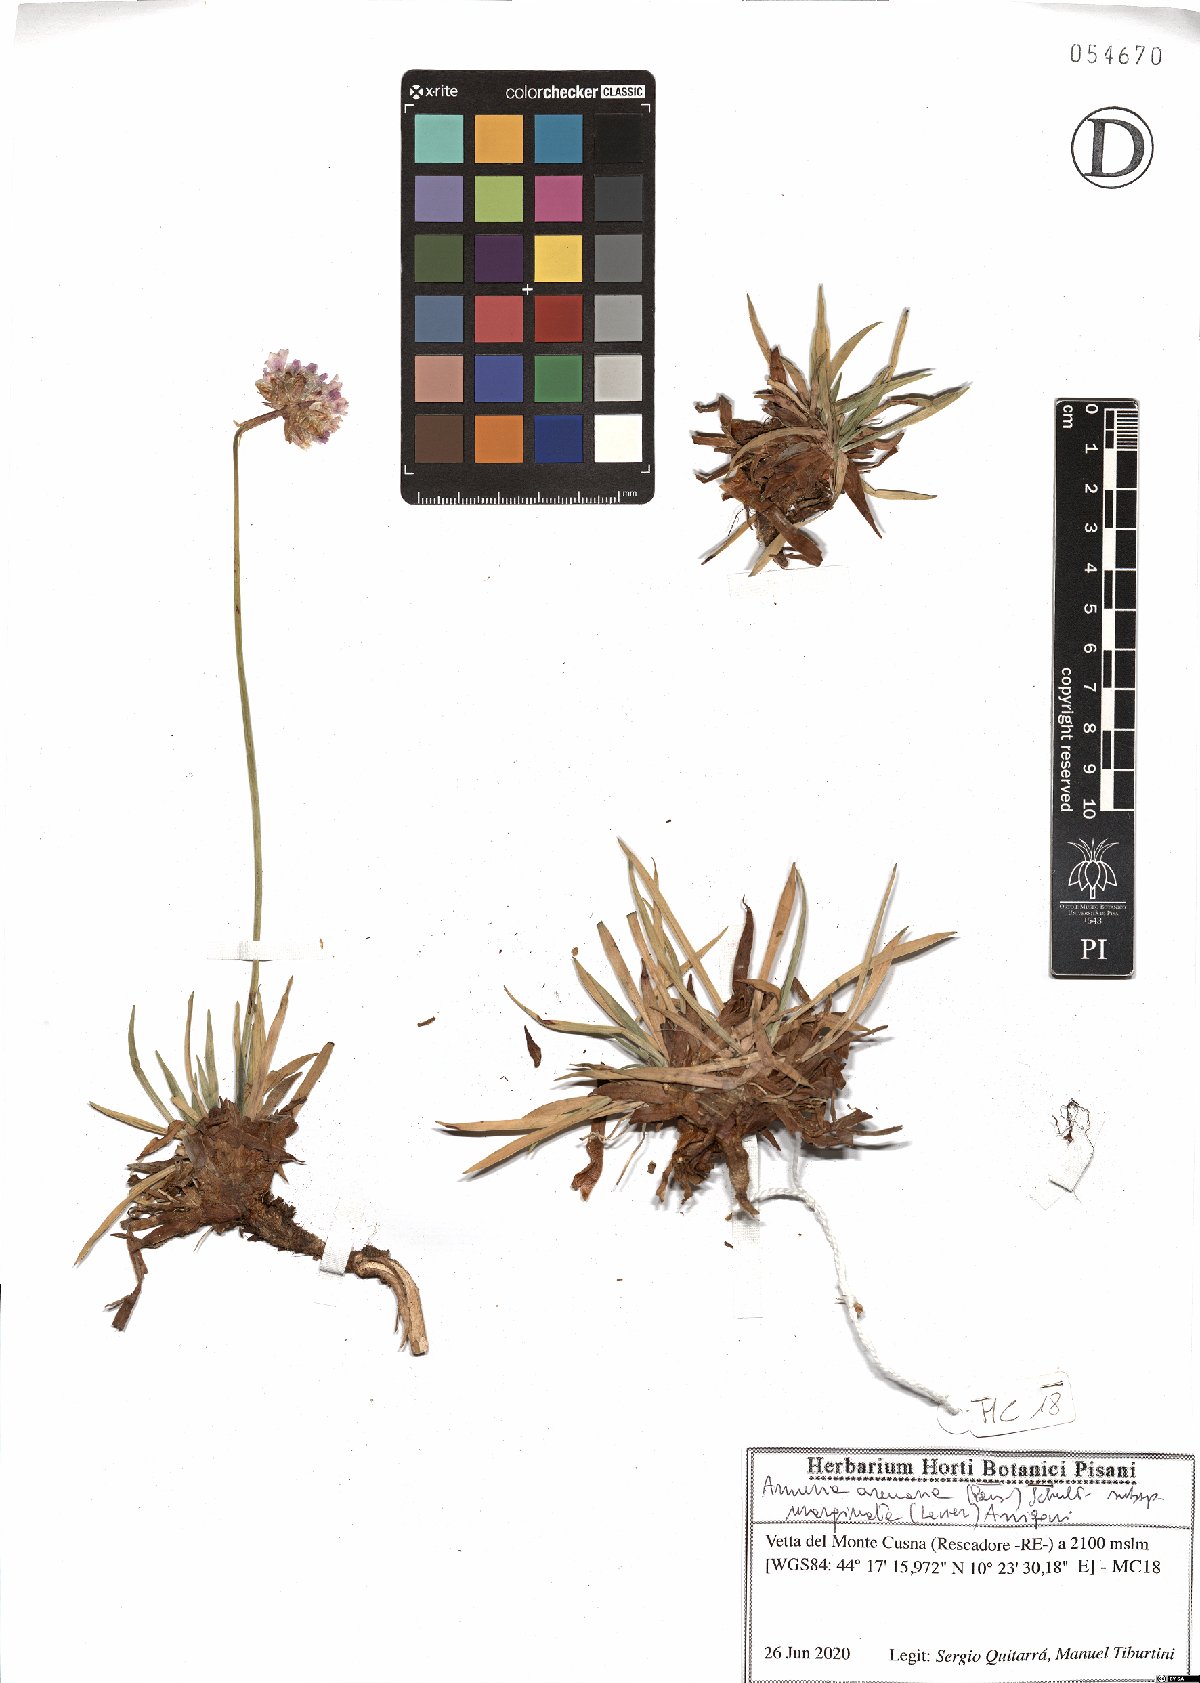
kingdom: Plantae
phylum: Tracheophyta
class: Magnoliopsida
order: Caryophyllales
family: Plumbaginaceae
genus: Armeria
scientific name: Armeria arenaria
